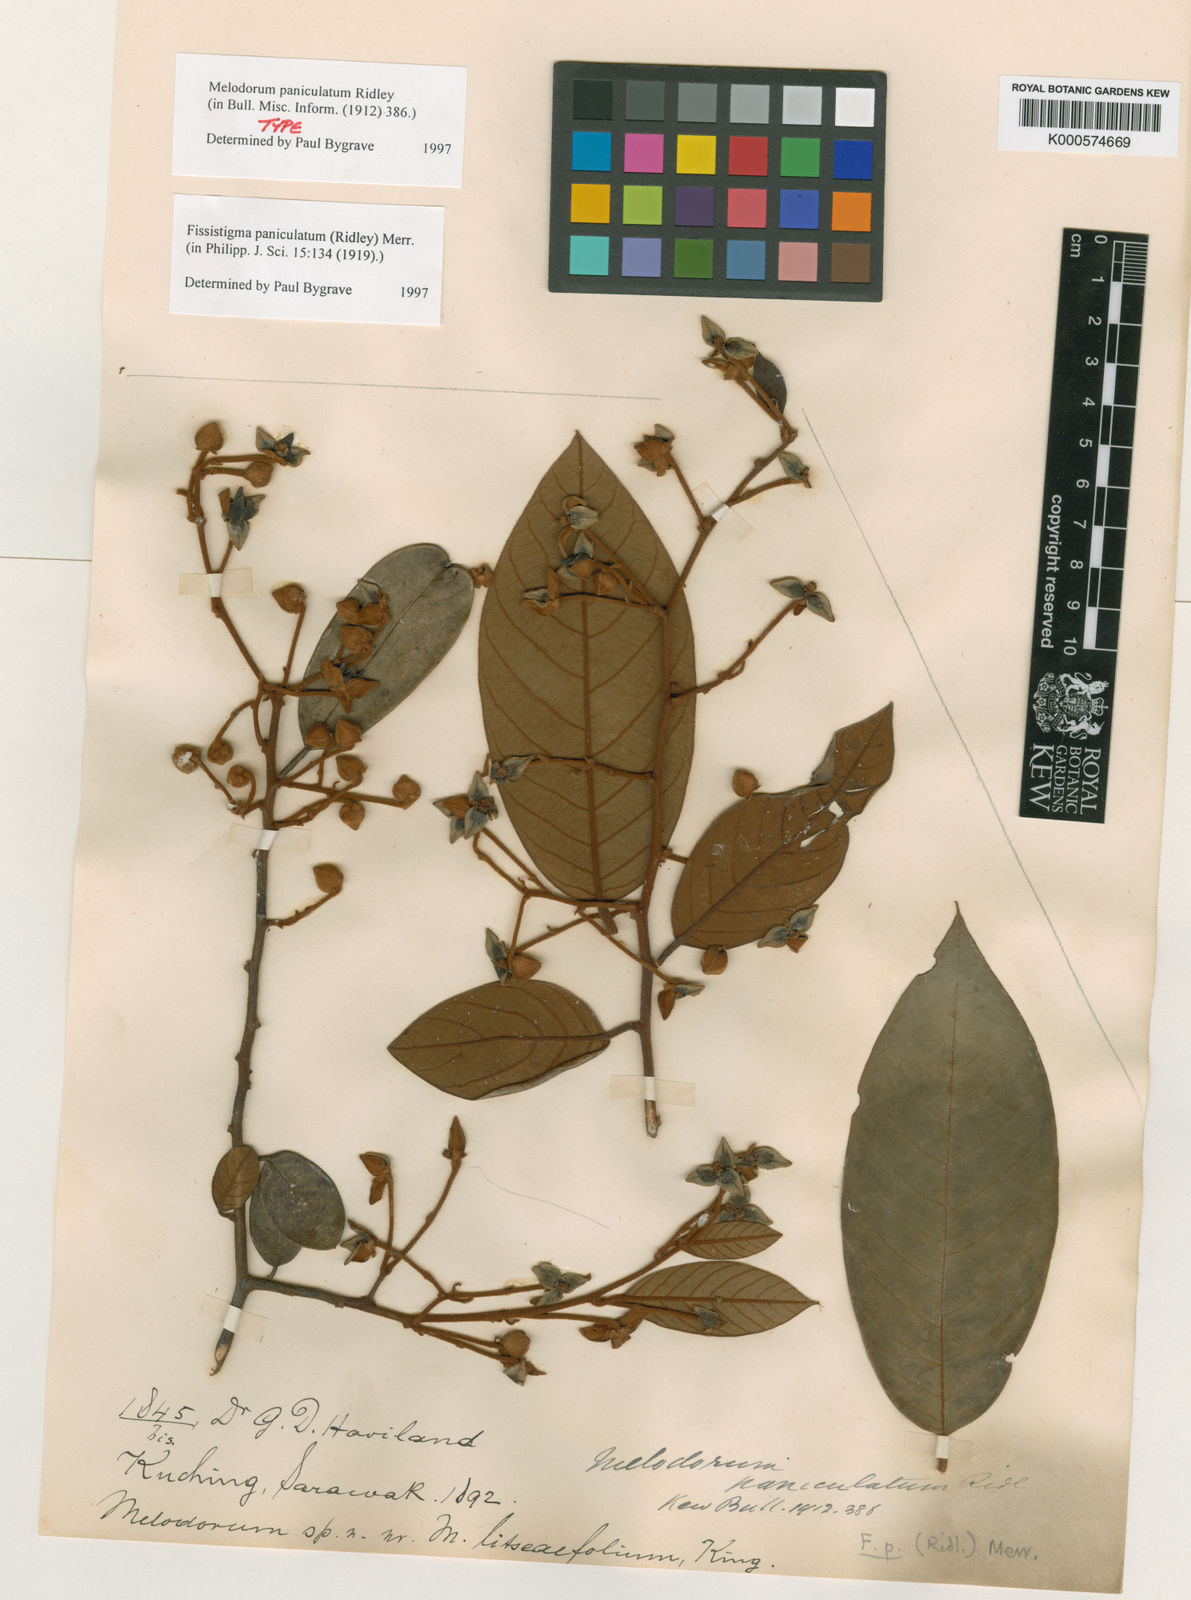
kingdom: Plantae
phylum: Tracheophyta
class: Magnoliopsida
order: Magnoliales
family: Annonaceae
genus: Fissistigma
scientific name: Fissistigma paniculatum
